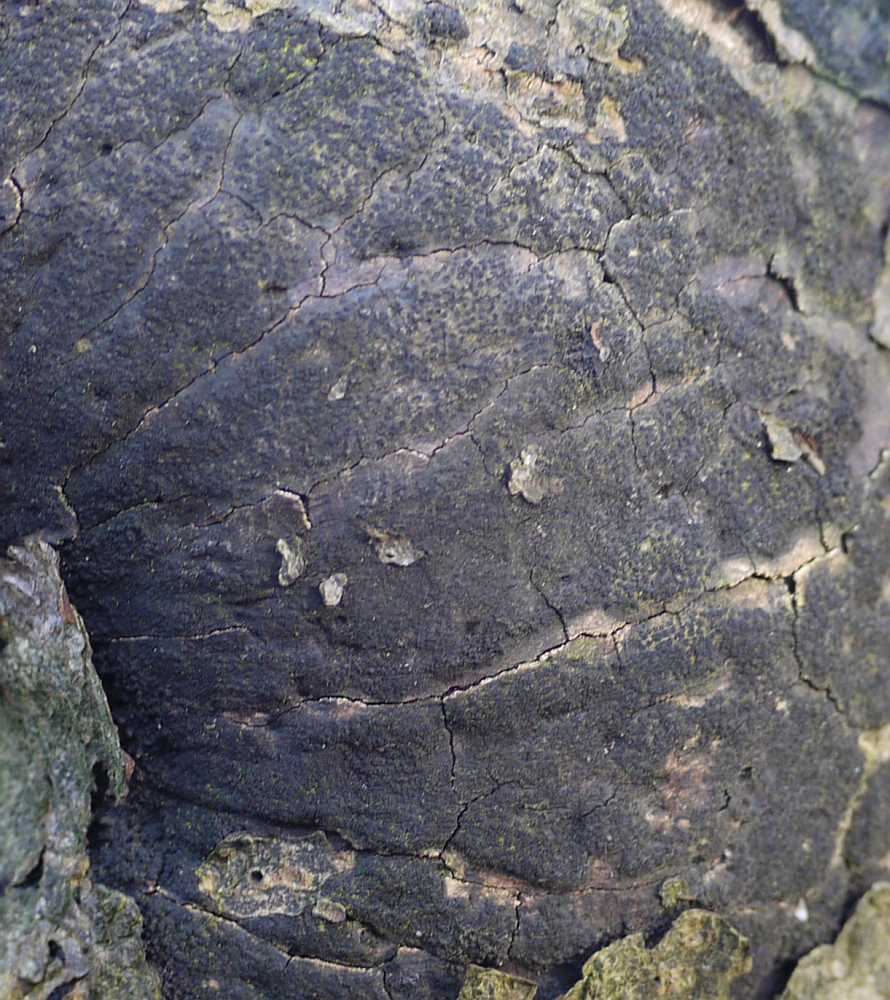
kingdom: Fungi
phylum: Ascomycota
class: Sordariomycetes
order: Xylariales
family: Diatrypaceae
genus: Eutypa
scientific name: Eutypa spinosa
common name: grov kulskorpe
